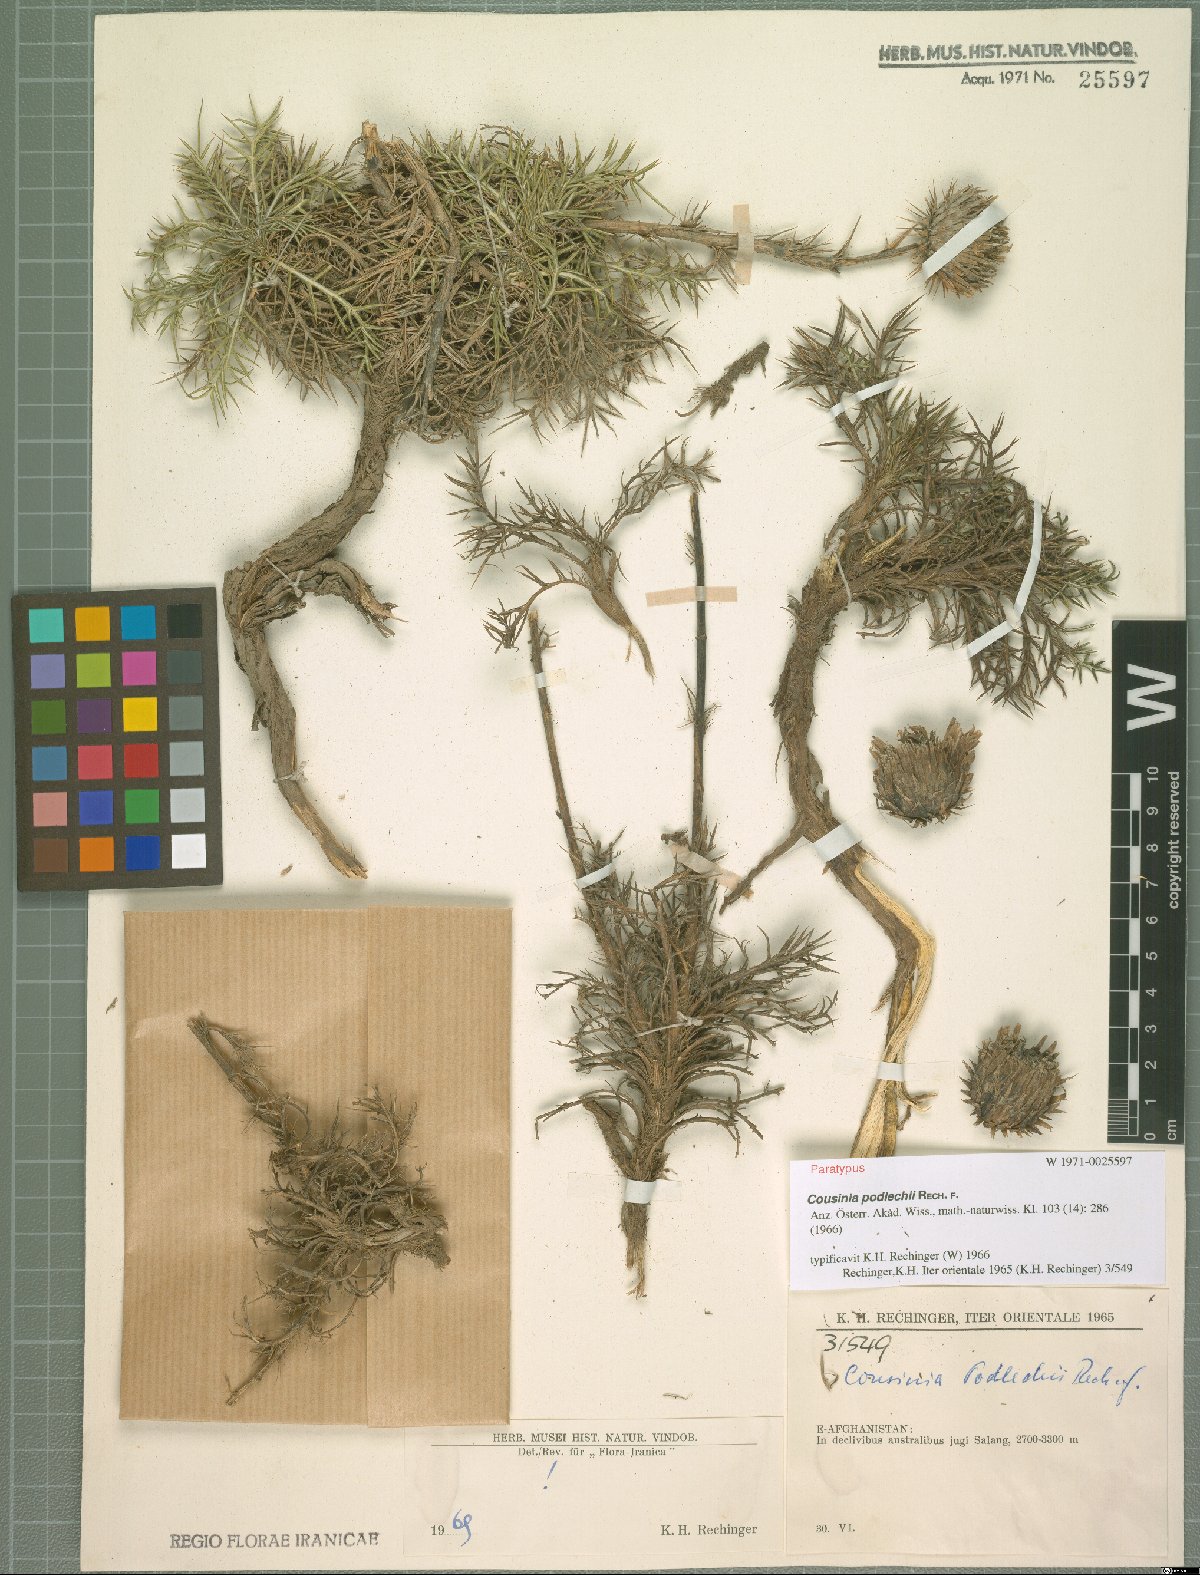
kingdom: Plantae
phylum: Tracheophyta
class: Magnoliopsida
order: Asterales
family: Asteraceae
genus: Cousinia
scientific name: Cousinia podlechii
